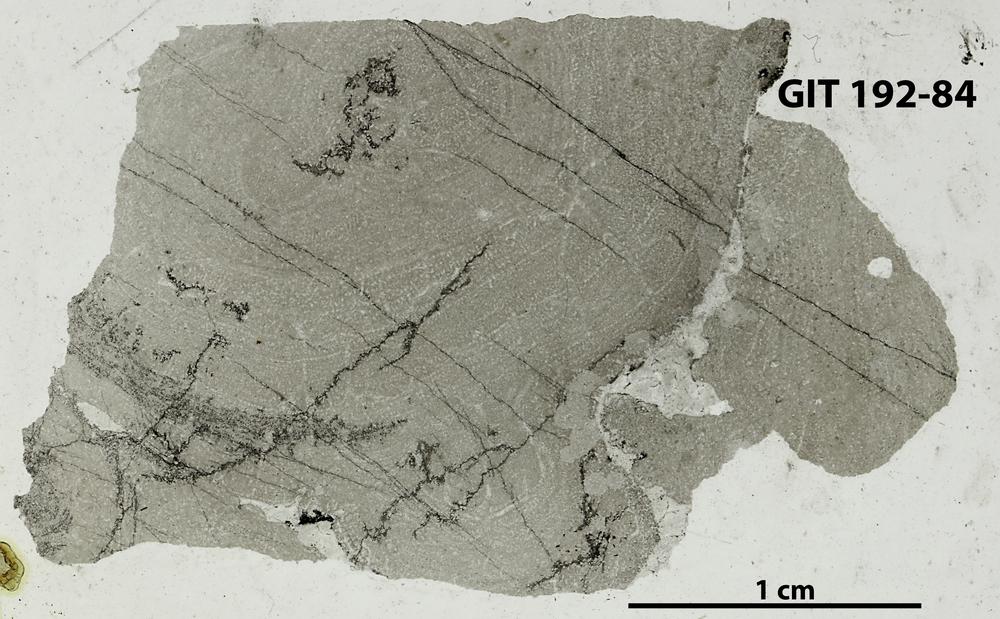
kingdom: Animalia
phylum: Porifera
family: Densastromatidae
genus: Araneosustroma
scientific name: Araneosustroma
